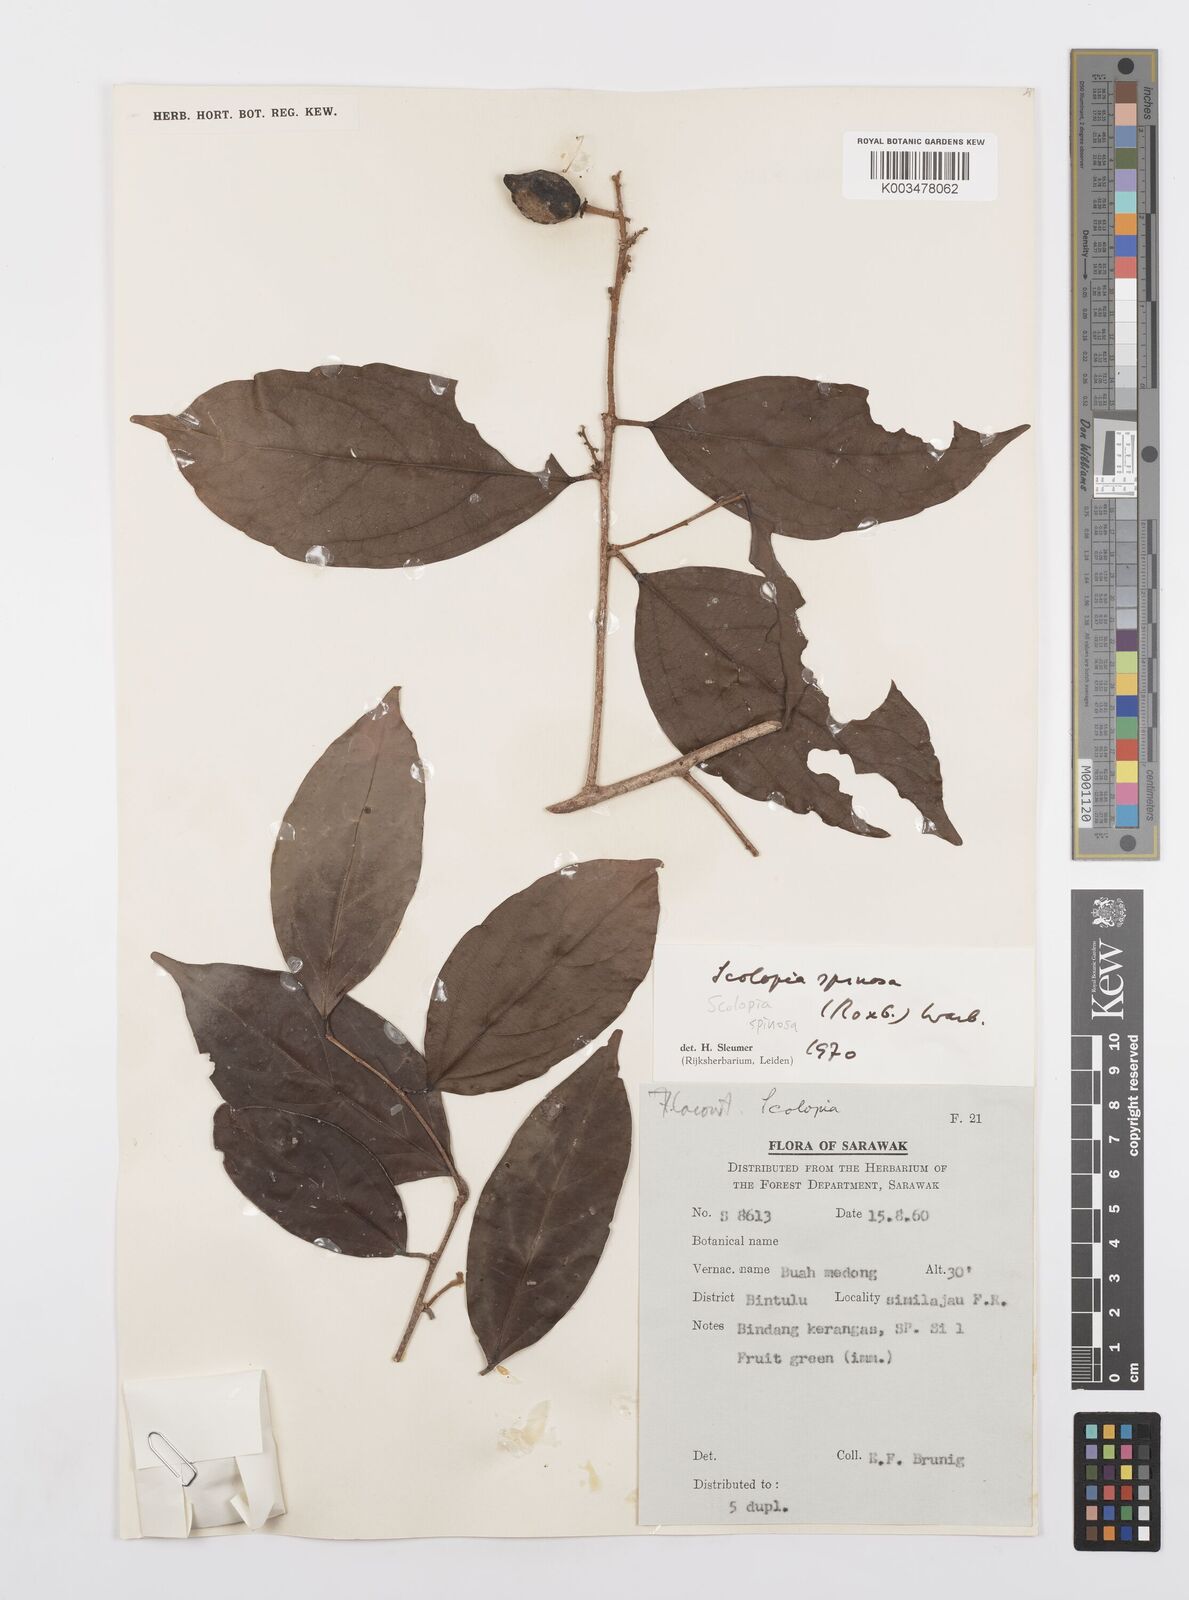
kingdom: Plantae
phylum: Tracheophyta
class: Magnoliopsida
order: Malpighiales
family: Salicaceae
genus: Scolopia
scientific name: Scolopia spinosa
